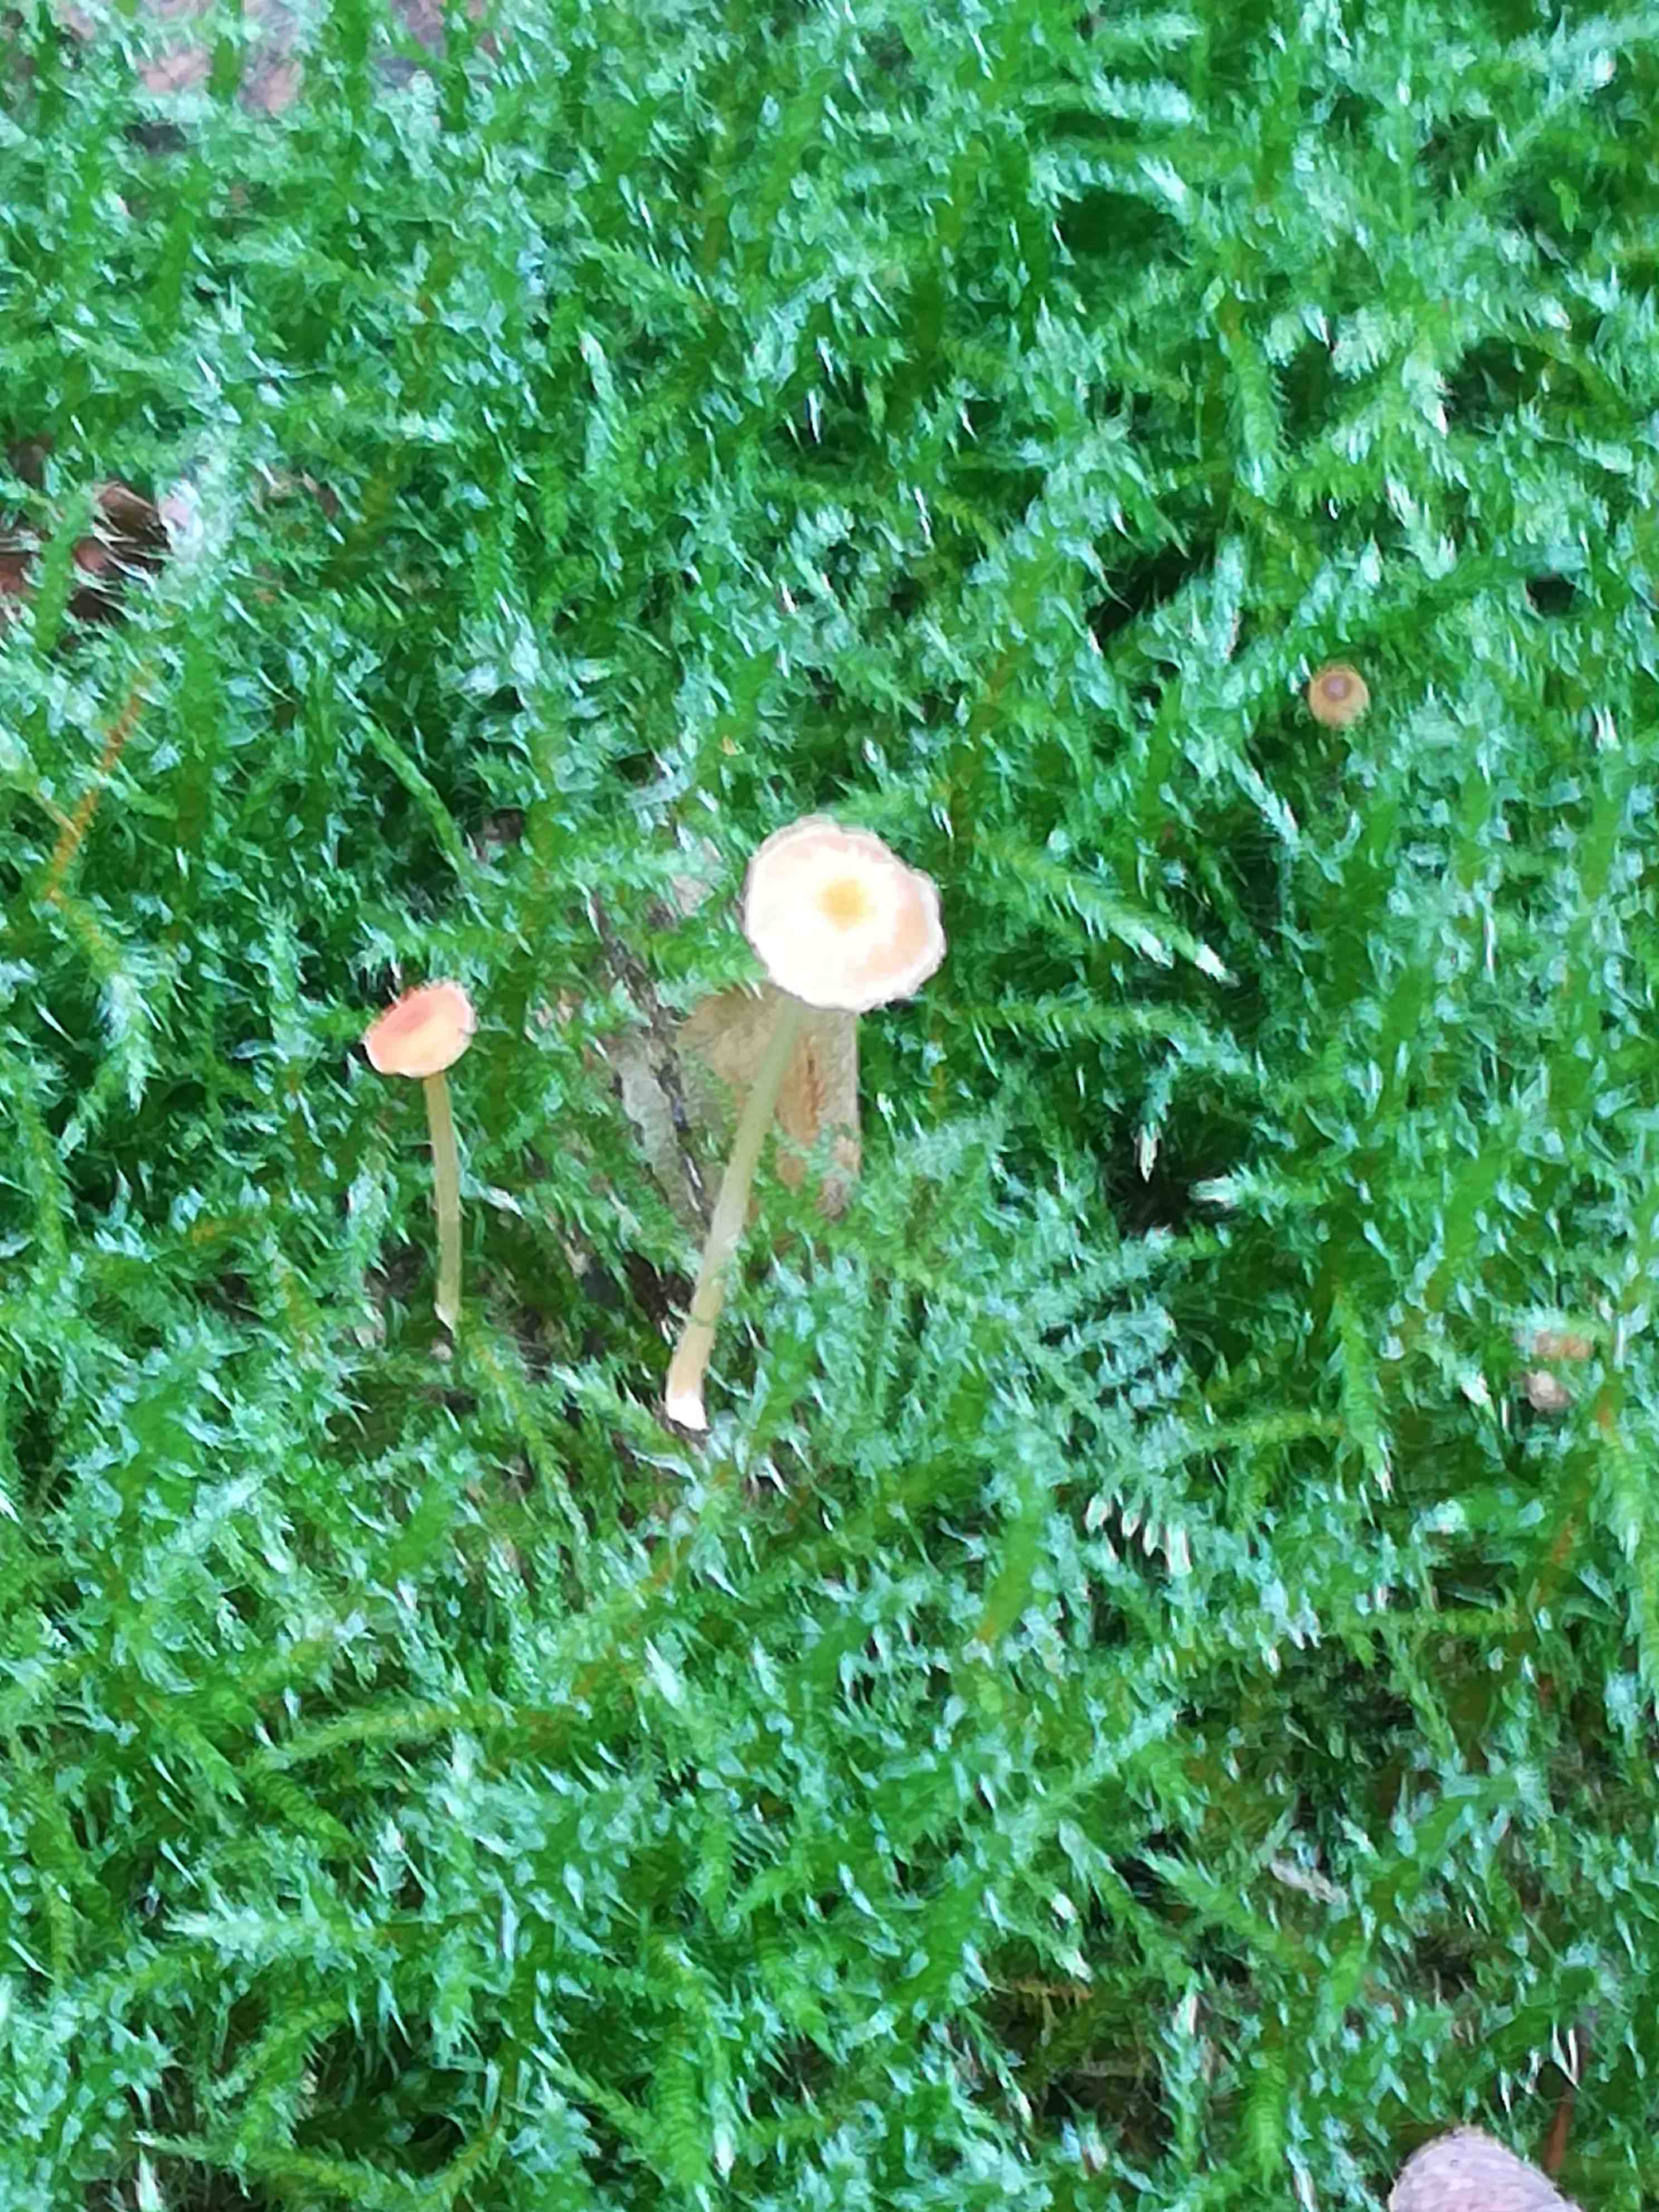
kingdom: Fungi
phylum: Basidiomycota
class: Agaricomycetes
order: Hymenochaetales
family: Rickenellaceae
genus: Rickenella
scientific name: Rickenella fibula
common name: orange mosnavlehat
